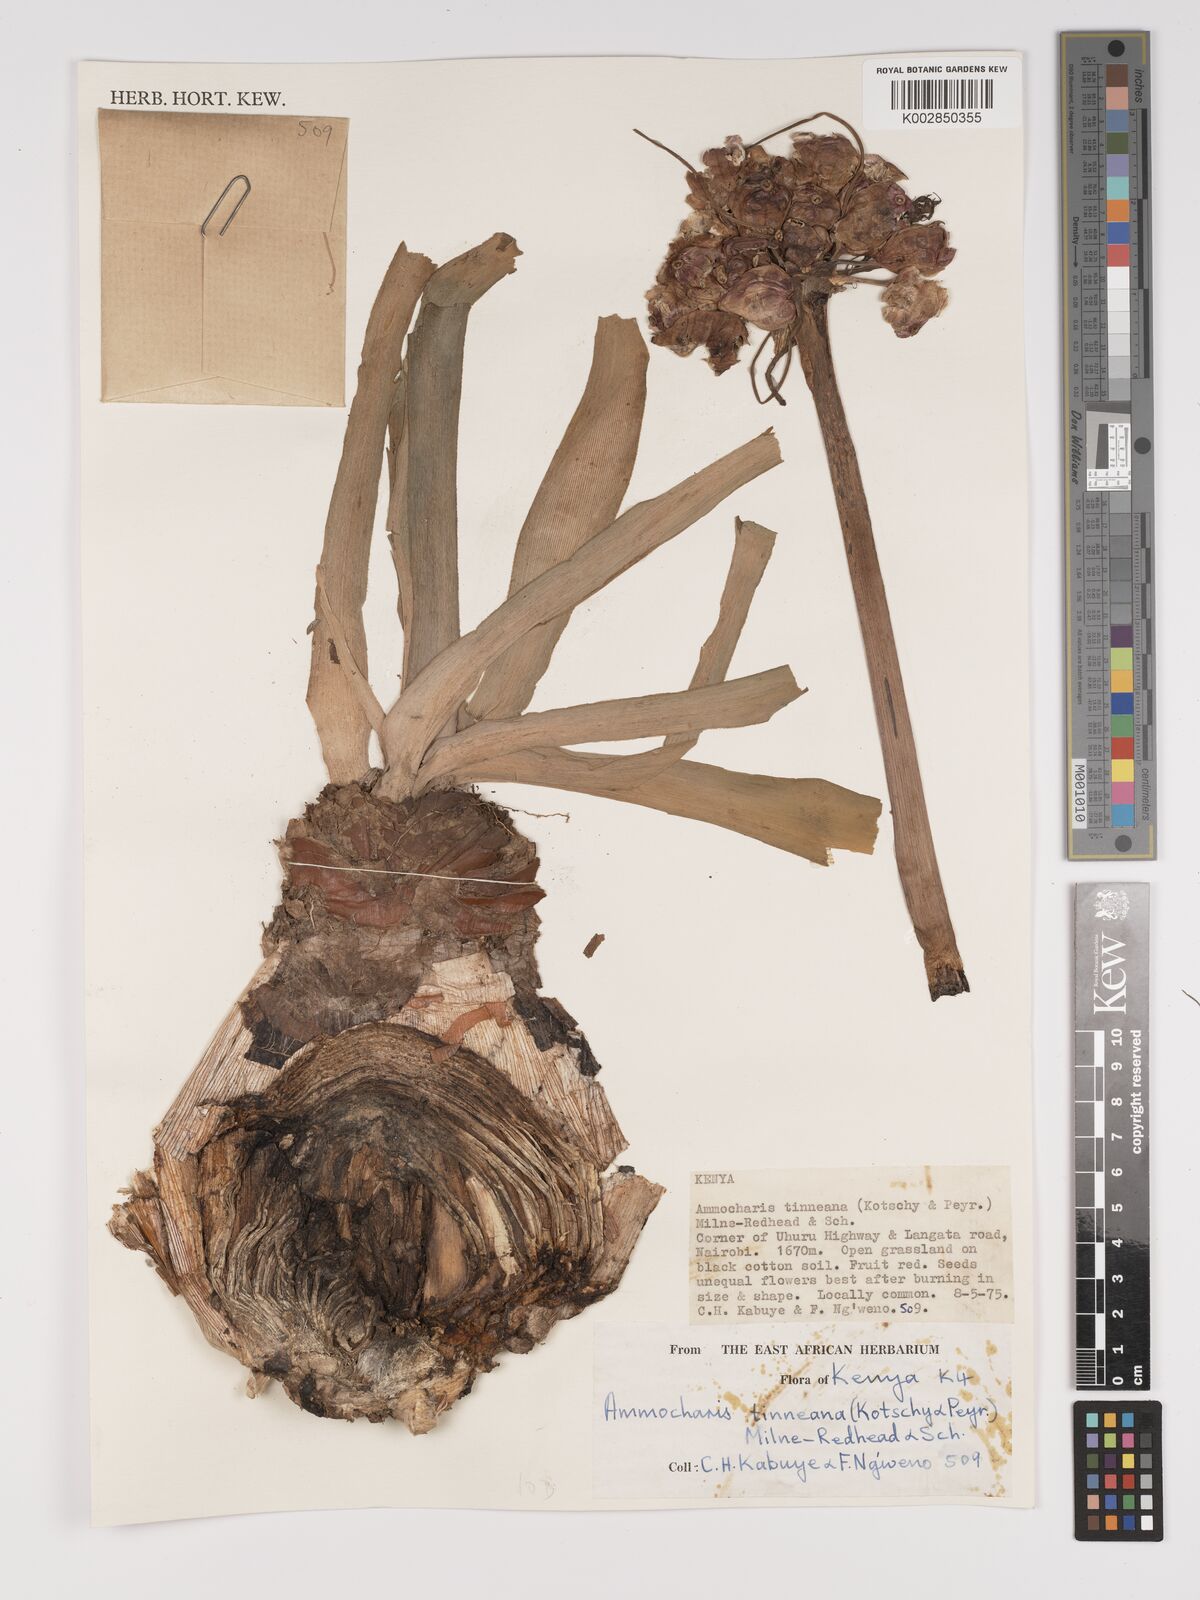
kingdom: Plantae
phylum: Tracheophyta
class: Liliopsida
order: Asparagales
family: Amaryllidaceae
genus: Ammocharis
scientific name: Ammocharis tinneana
